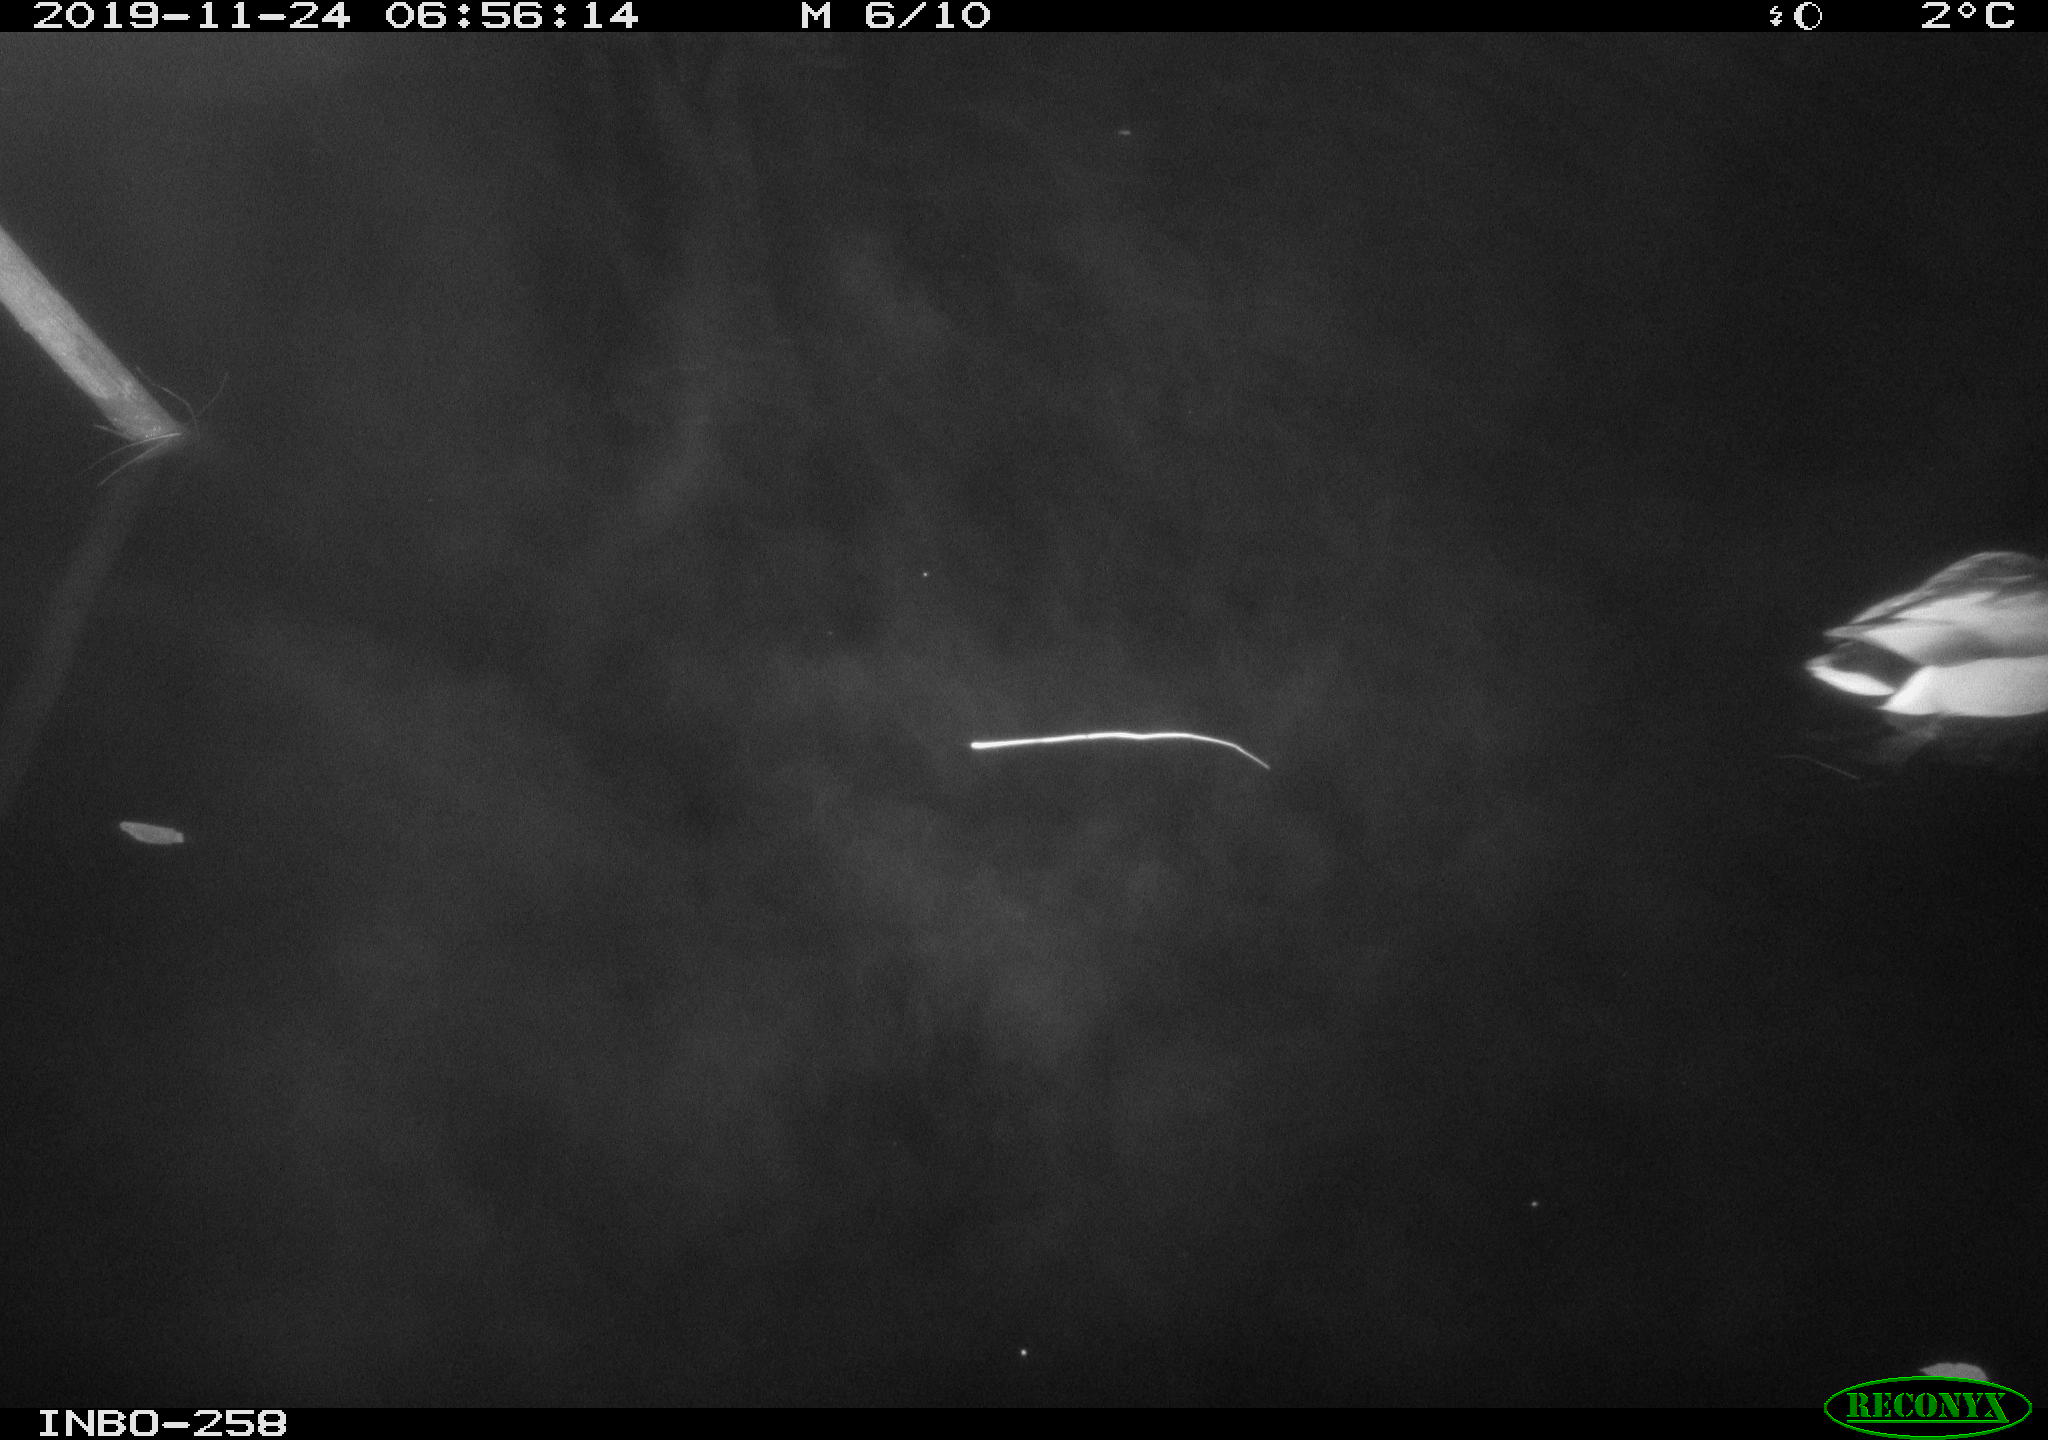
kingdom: Animalia
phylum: Chordata
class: Aves
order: Anseriformes
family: Anatidae
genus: Anas
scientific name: Anas platyrhynchos
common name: Mallard
